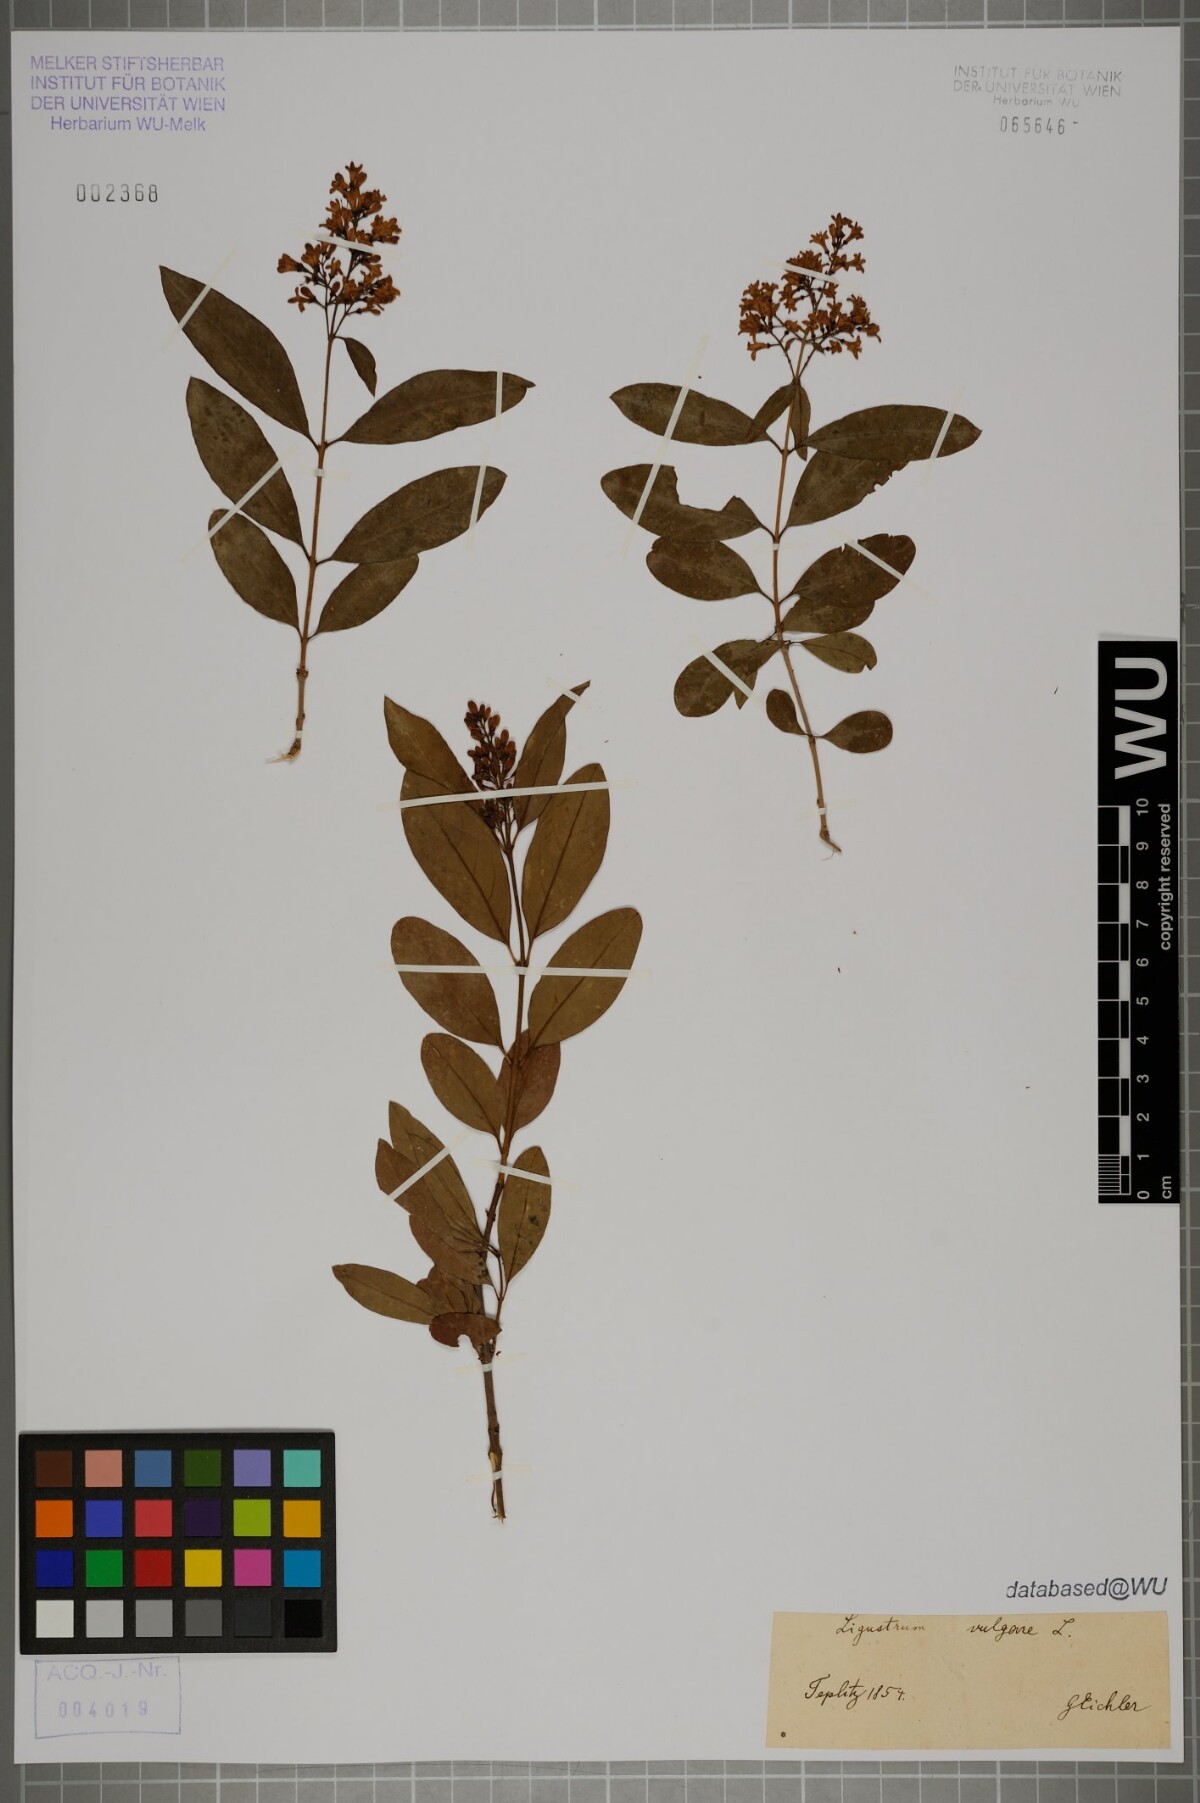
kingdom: Plantae
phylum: Tracheophyta
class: Magnoliopsida
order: Lamiales
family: Oleaceae
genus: Ligustrum
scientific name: Ligustrum vulgare
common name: Wild privet
